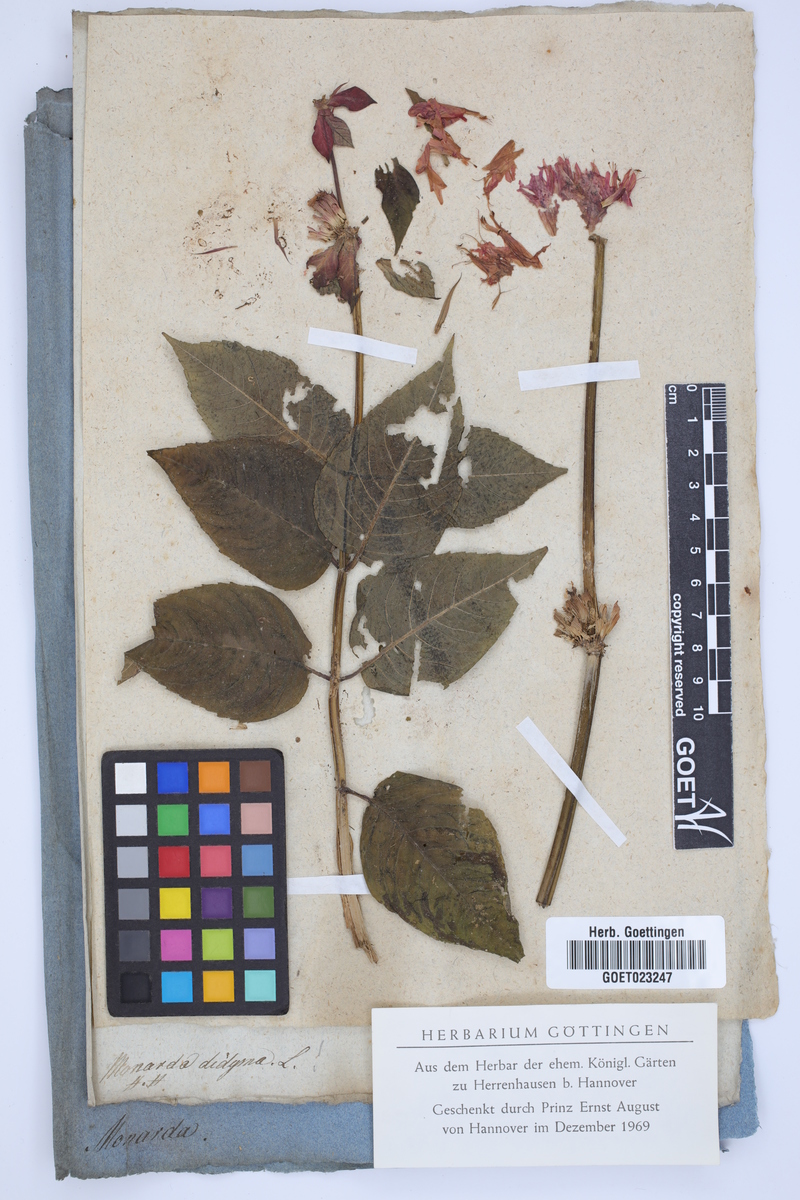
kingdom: Plantae
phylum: Tracheophyta
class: Magnoliopsida
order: Lamiales
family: Lamiaceae
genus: Monarda
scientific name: Monarda didyma
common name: Beebalm
